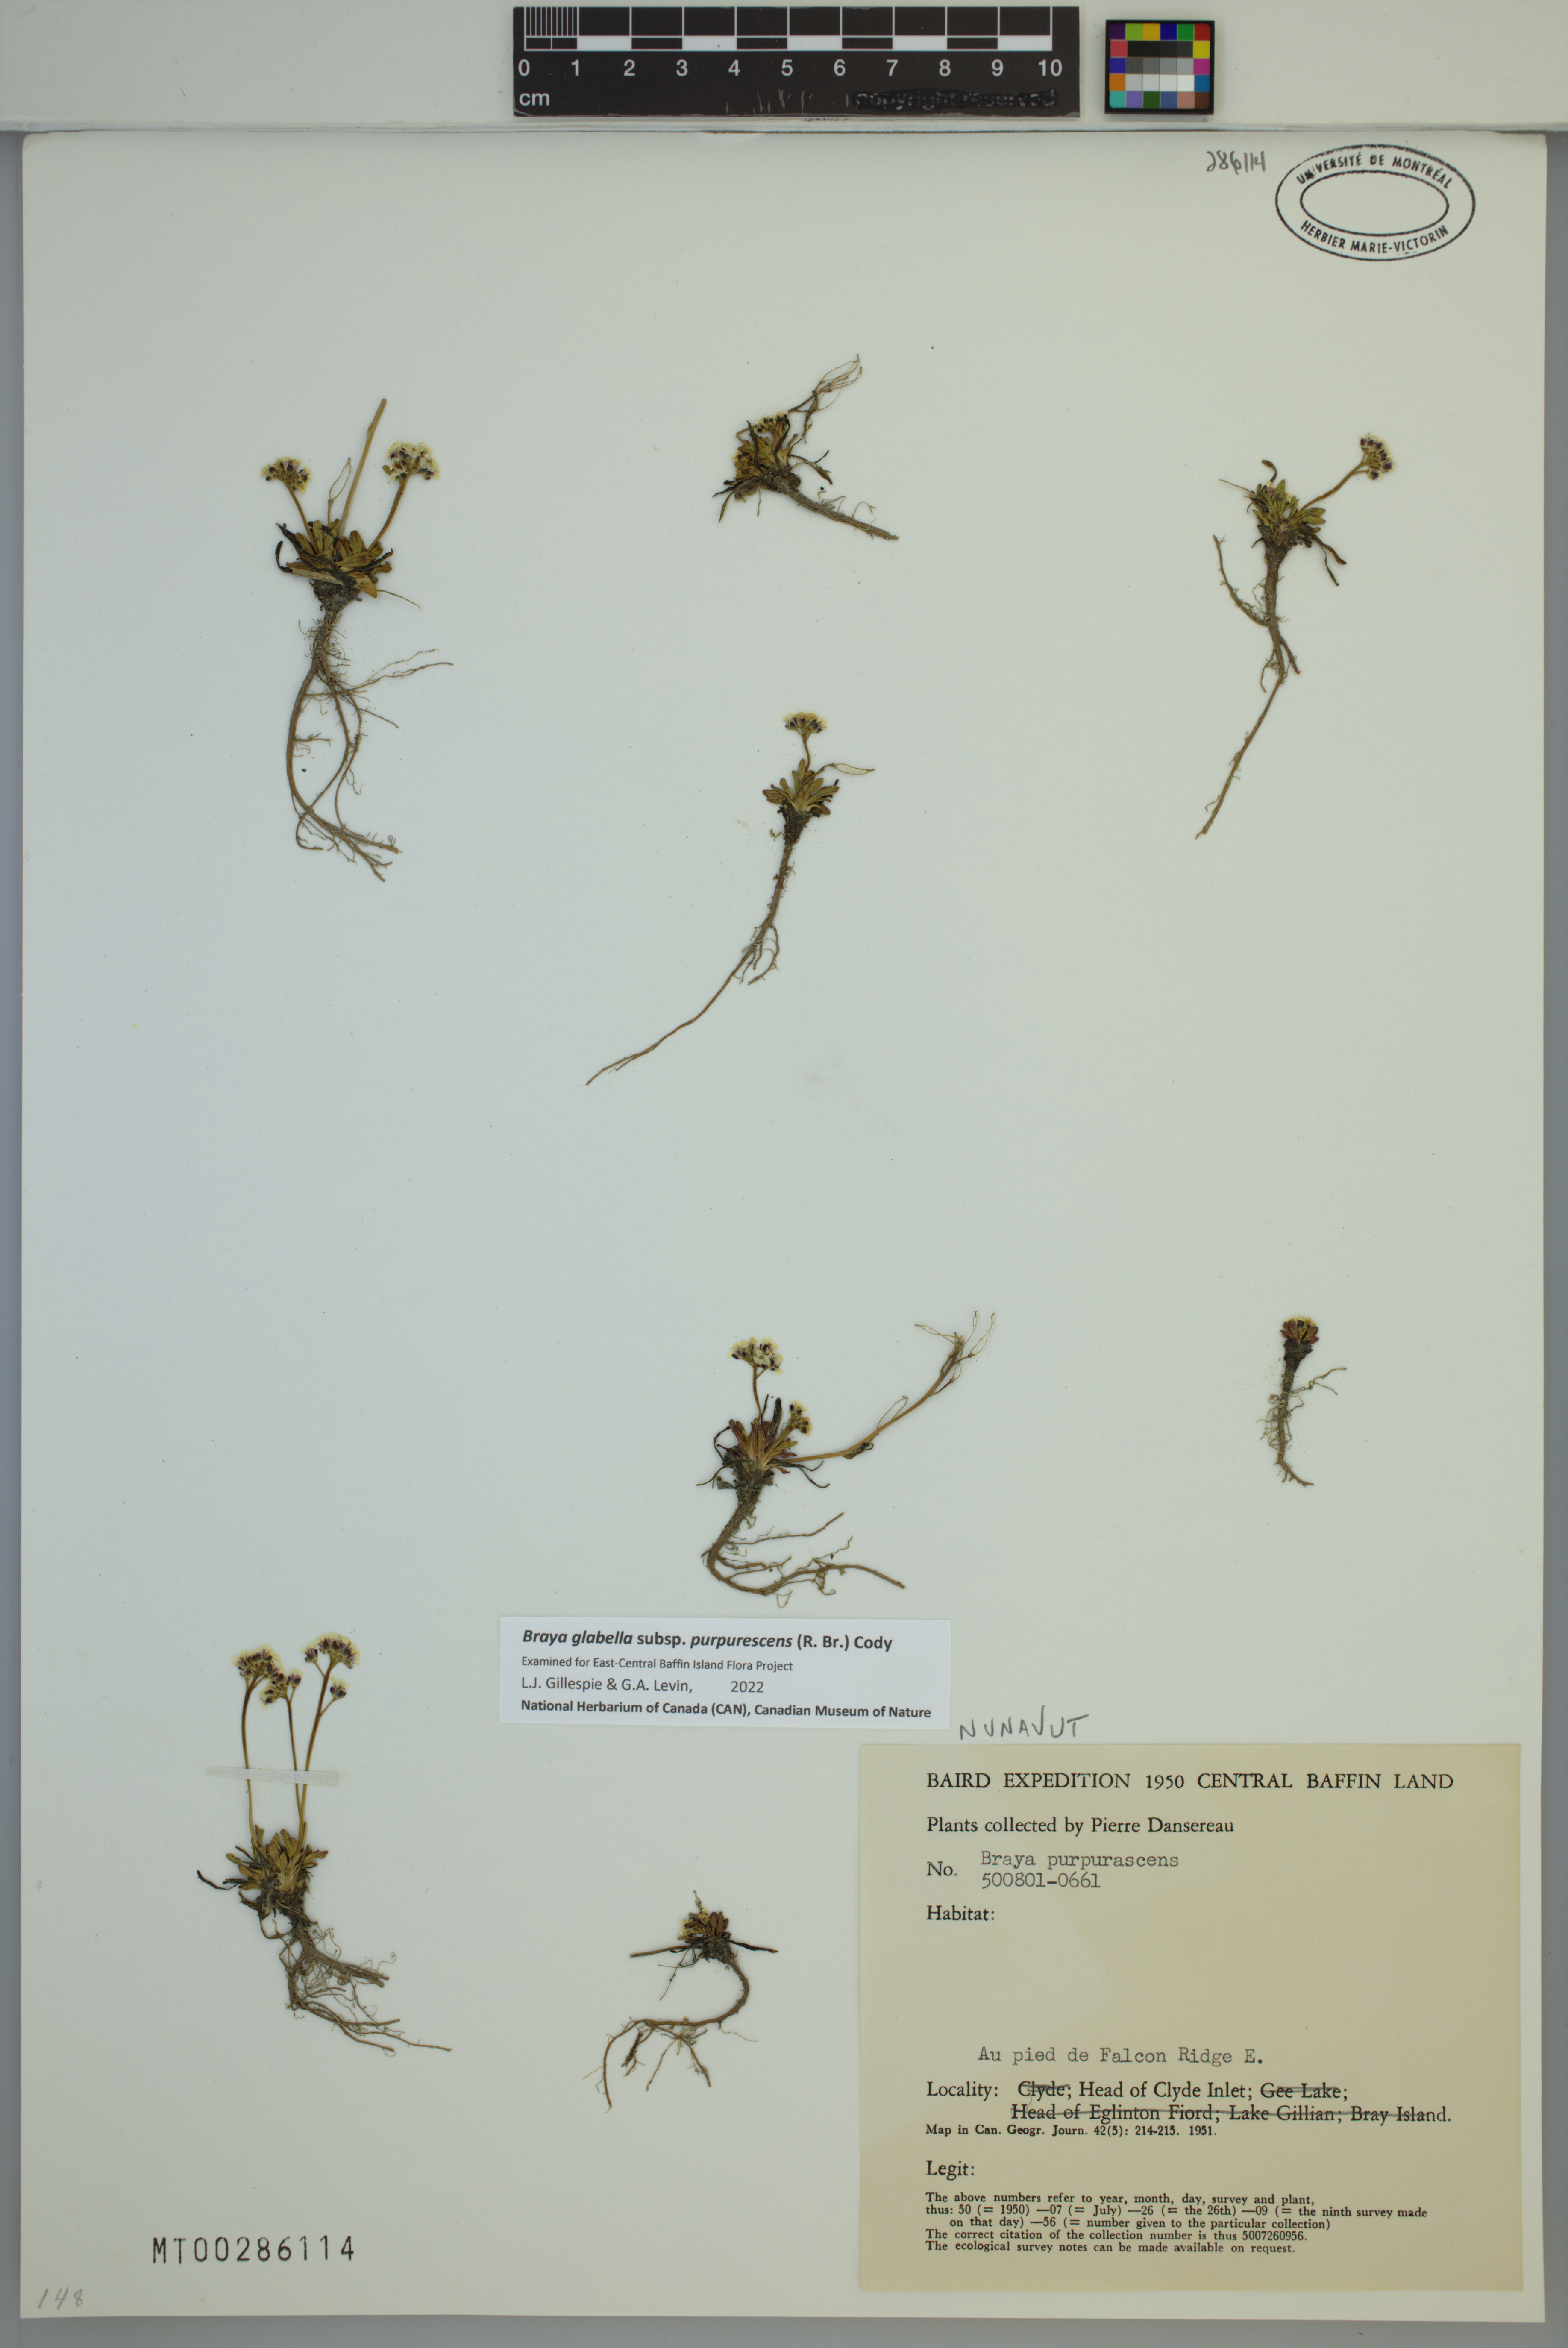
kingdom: Plantae
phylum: Tracheophyta
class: Magnoliopsida
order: Brassicales
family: Brassicaceae
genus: Braya
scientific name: Braya purpurascens
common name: Alpine braya
